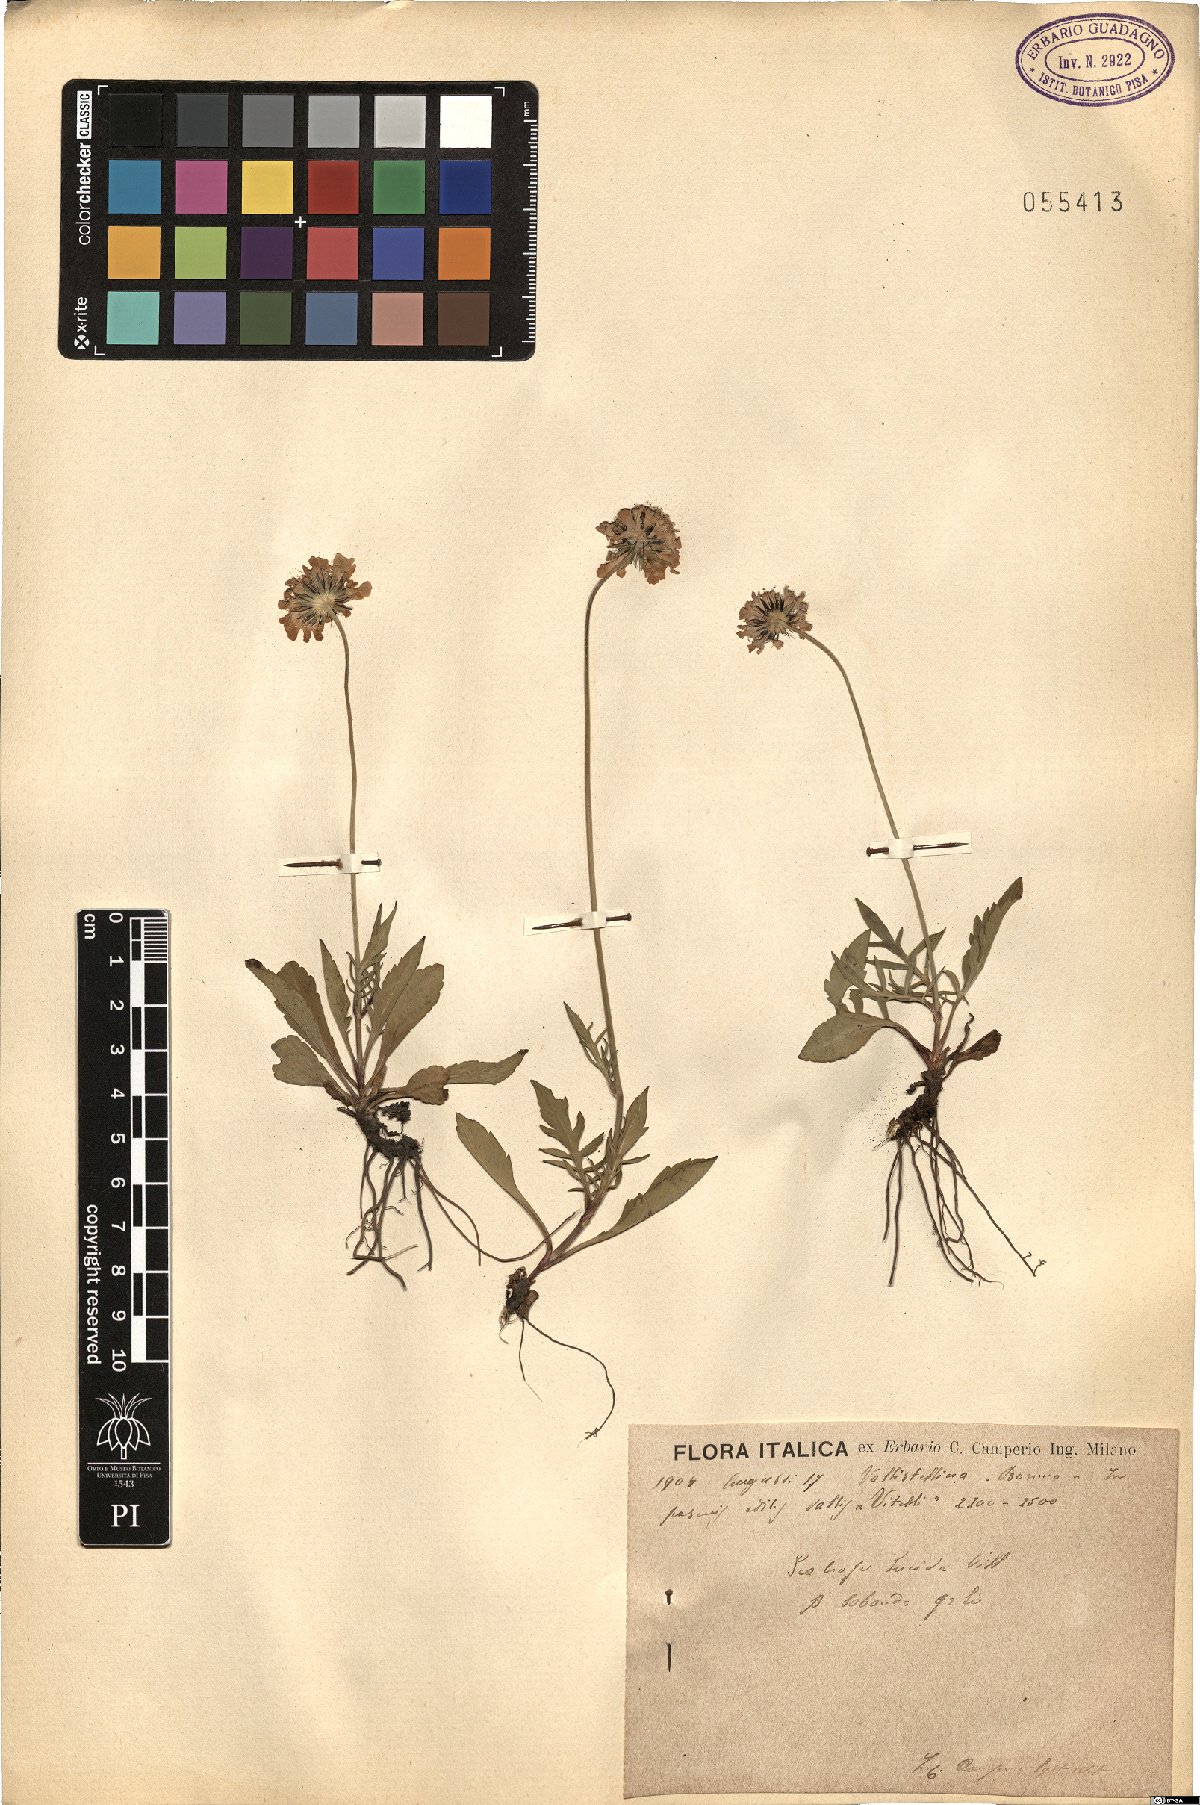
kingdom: Plantae
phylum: Tracheophyta
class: Magnoliopsida
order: Dipsacales
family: Caprifoliaceae
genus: Scabiosa
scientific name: Scabiosa lucida
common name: Shining scabious
